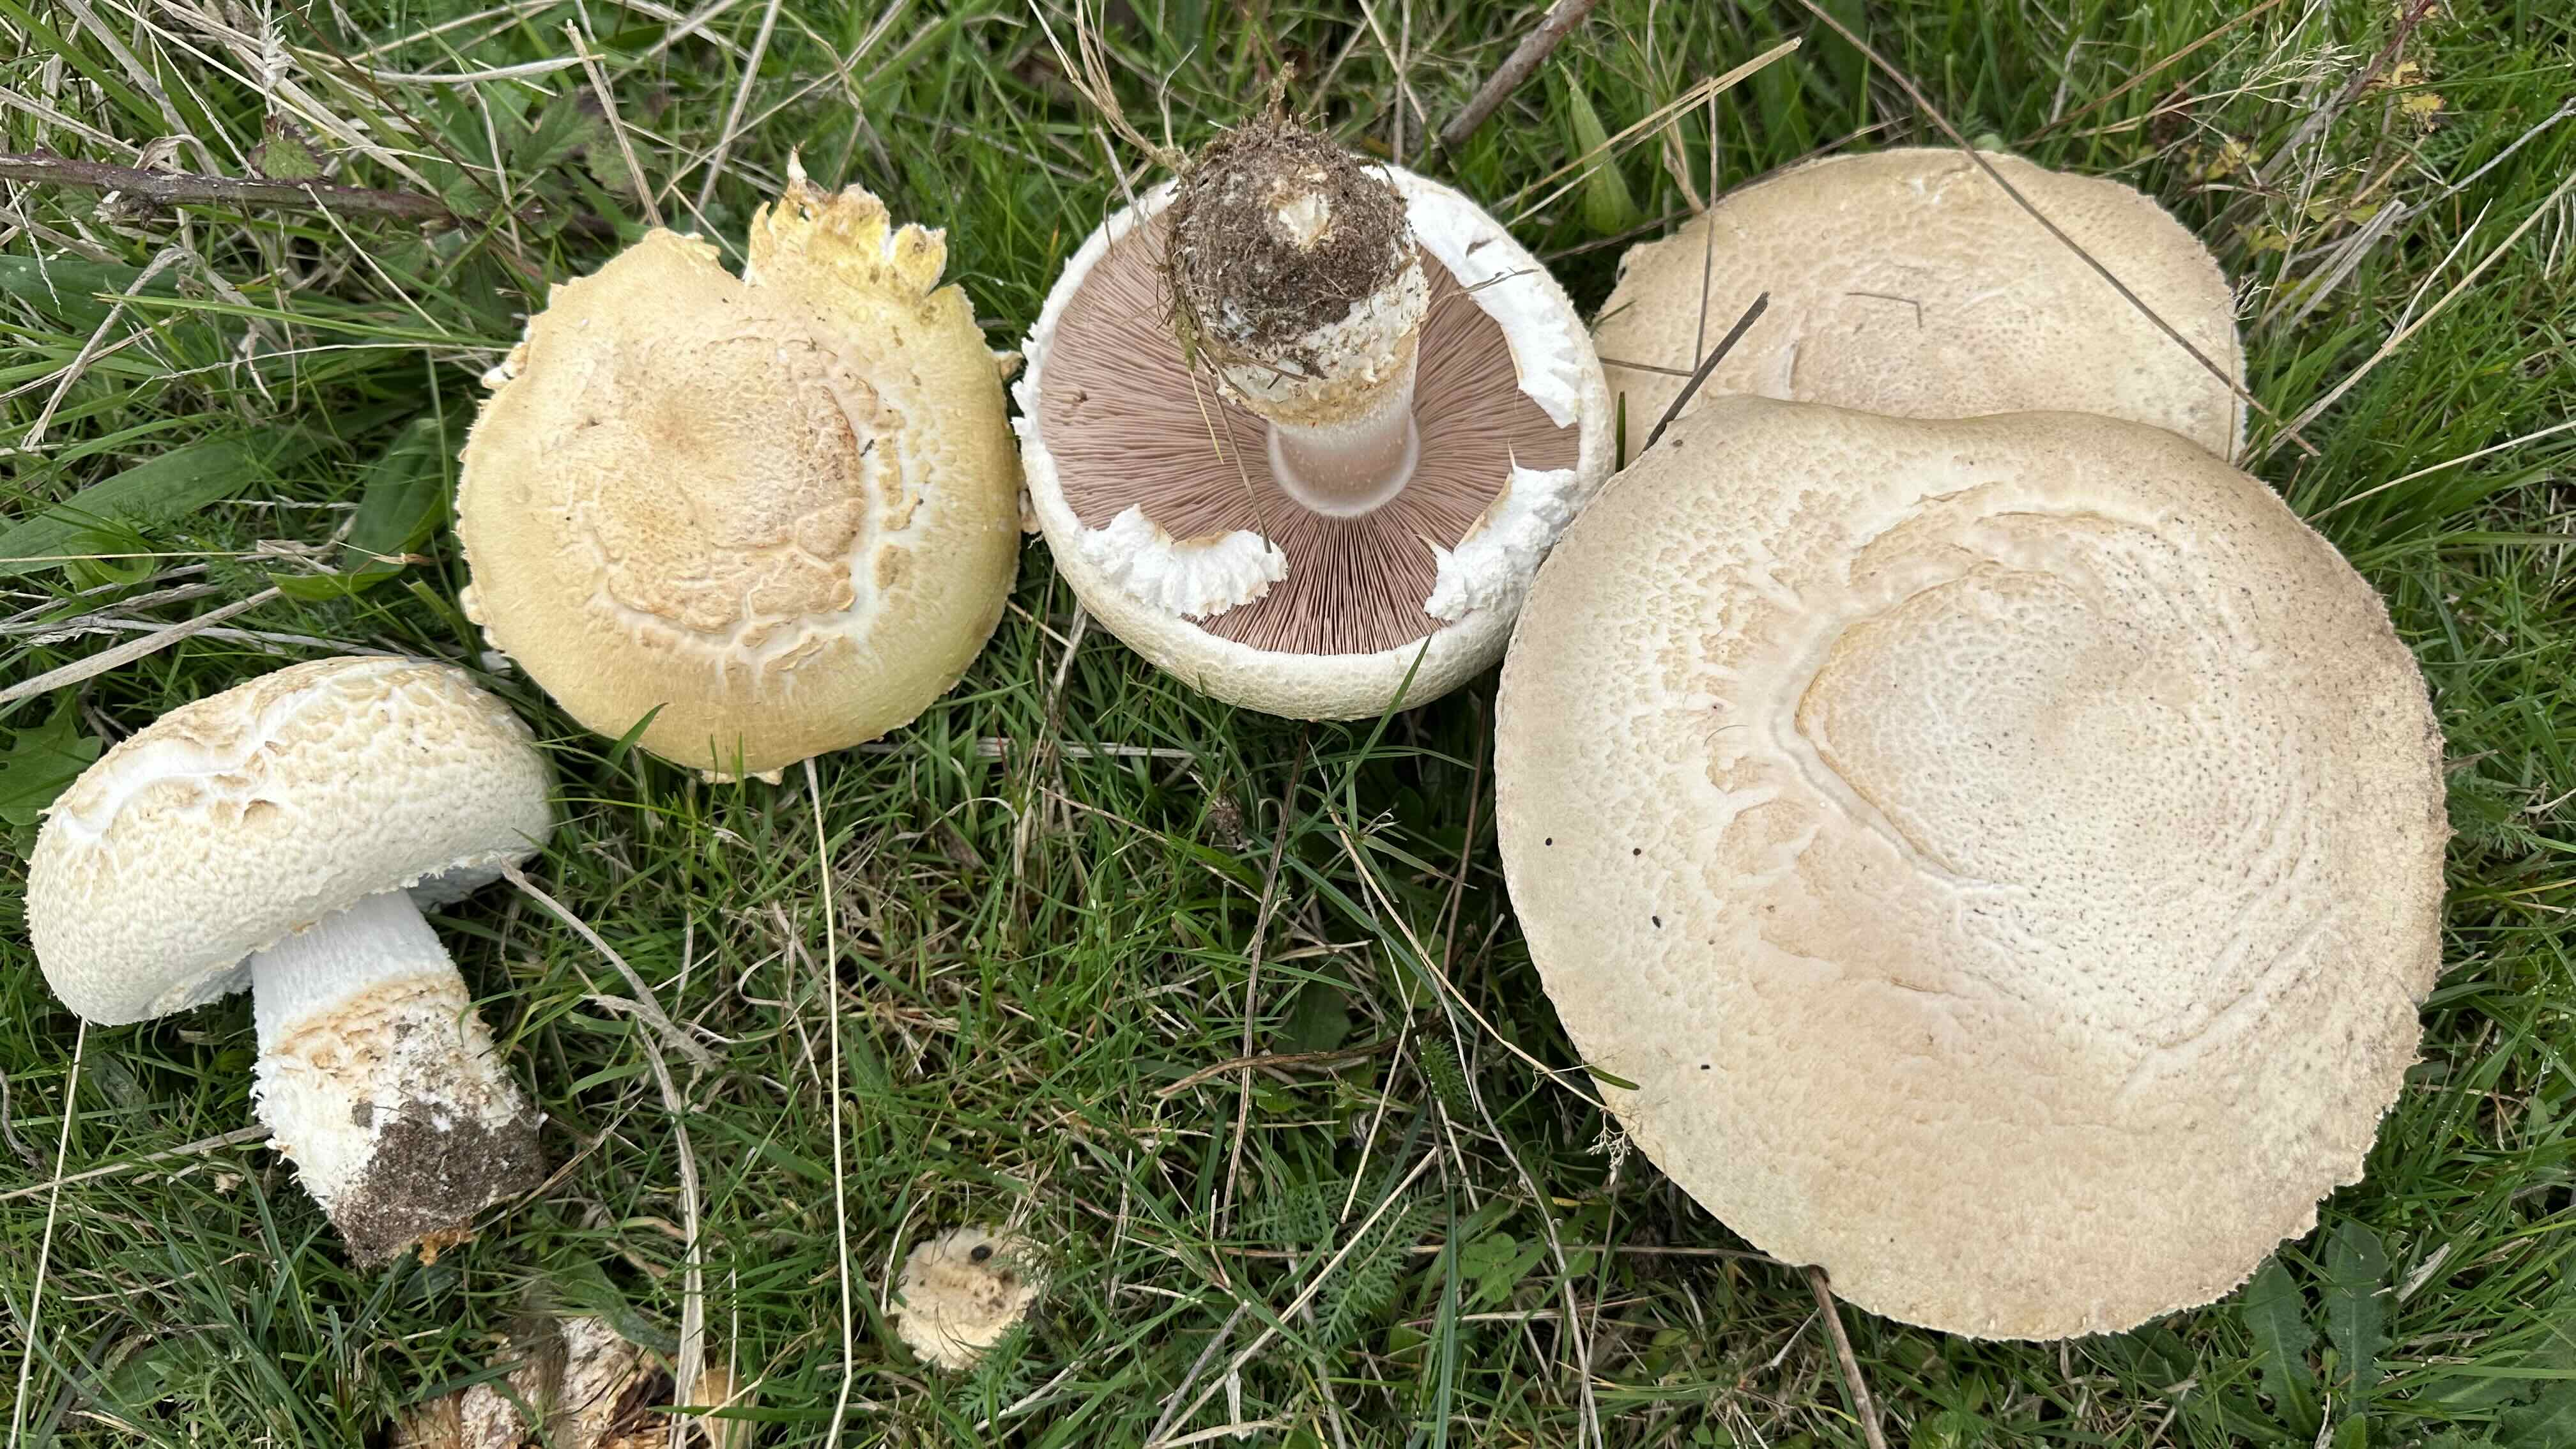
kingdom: Fungi
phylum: Basidiomycota
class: Agaricomycetes
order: Agaricales
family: Agaricaceae
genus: Agaricus
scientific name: Agaricus
